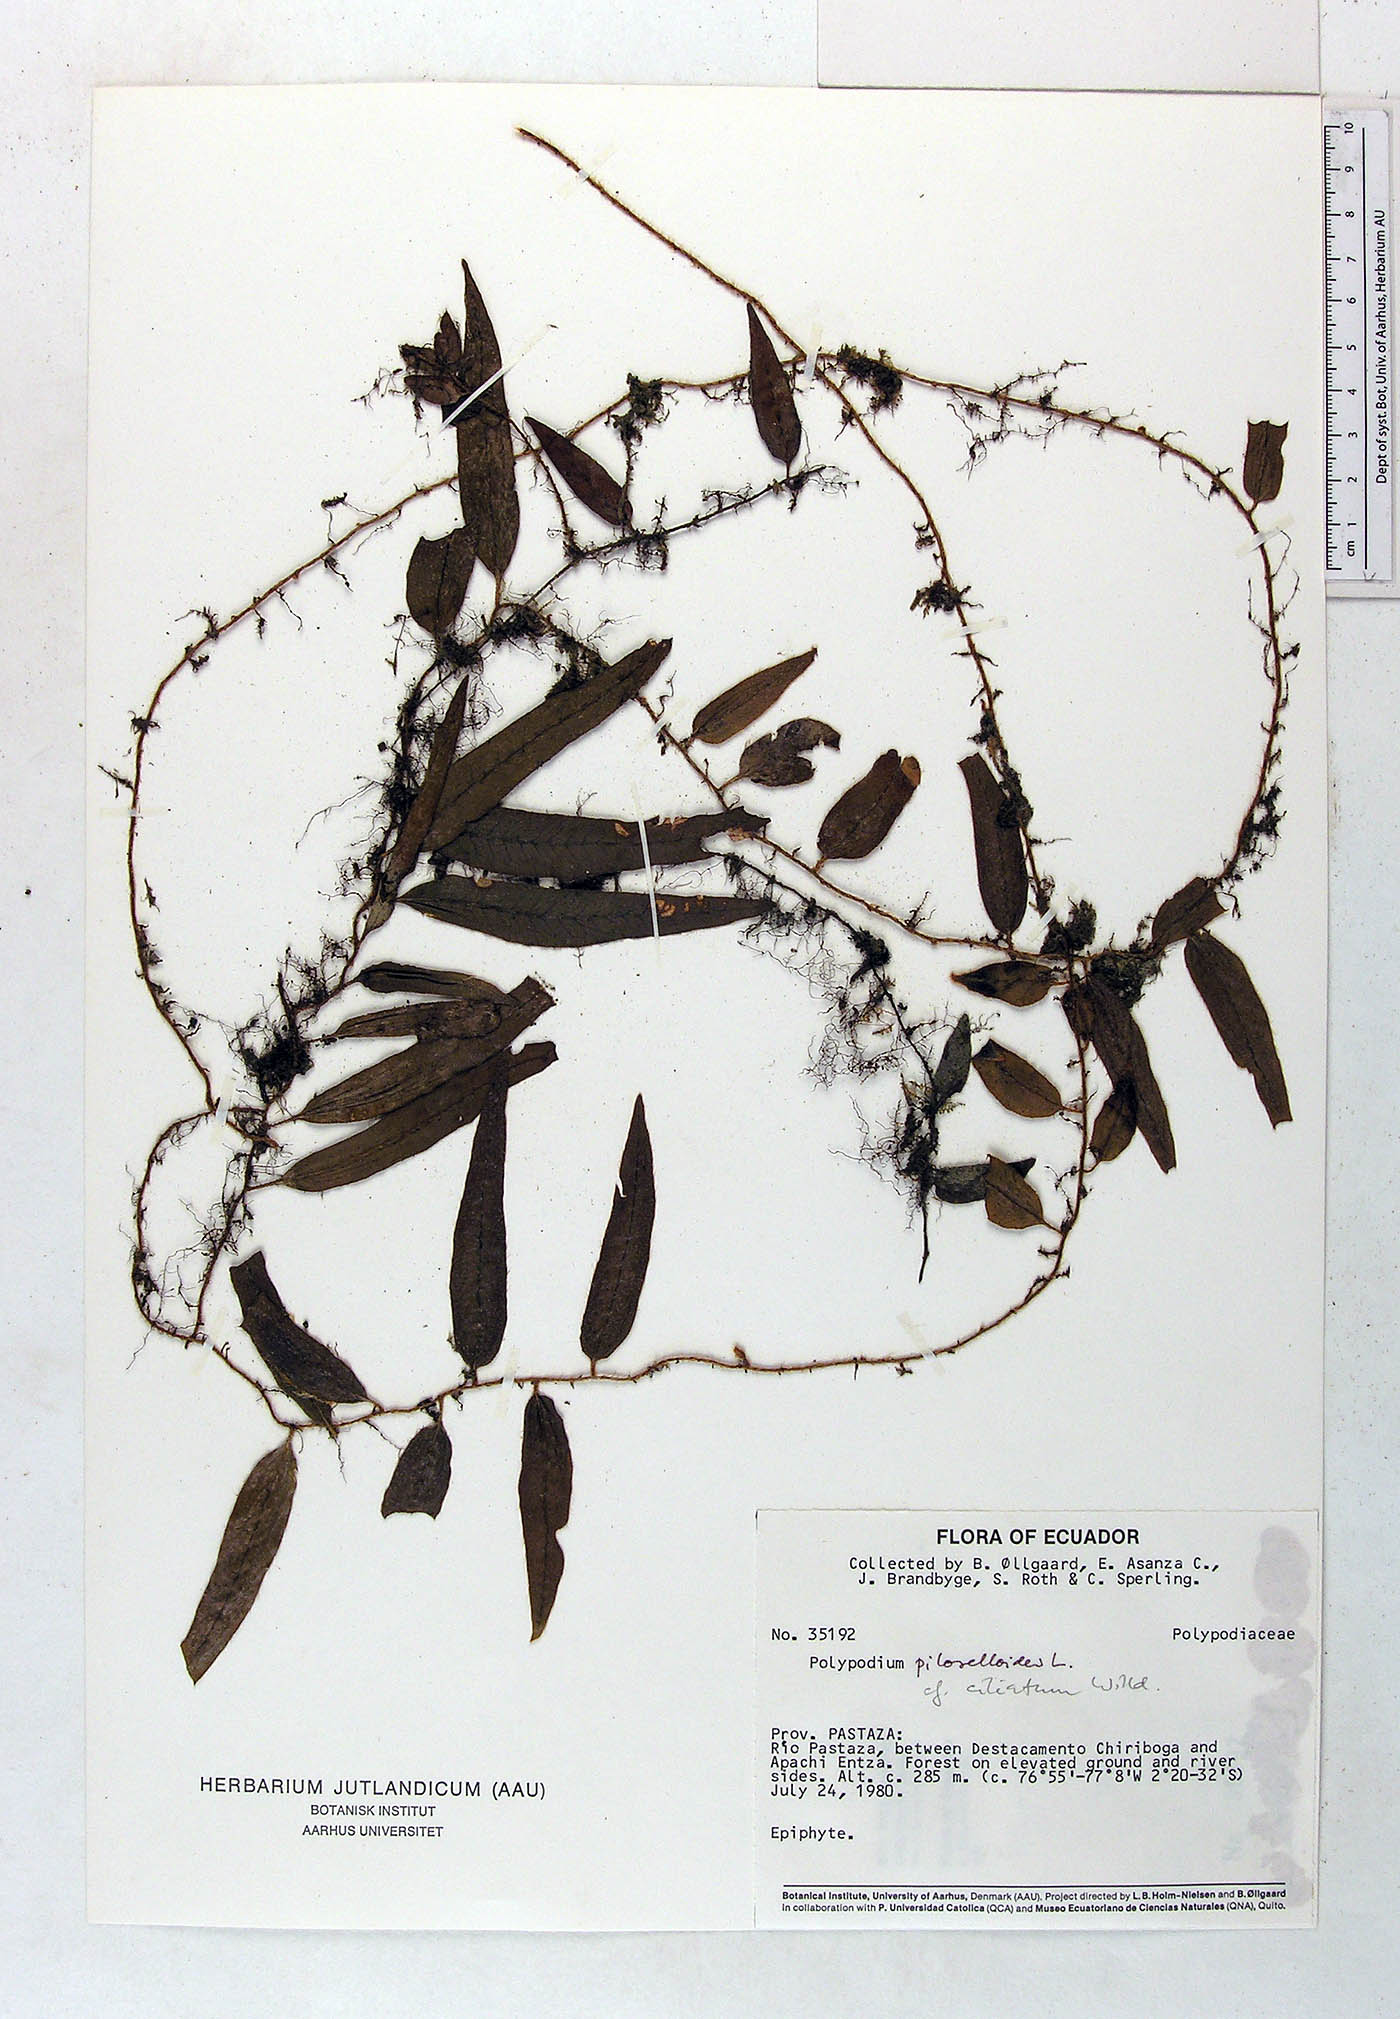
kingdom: Plantae
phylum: Tracheophyta
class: Polypodiopsida
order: Polypodiales
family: Polypodiaceae
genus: Microgramma
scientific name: Microgramma piloselloides
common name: Hairy snakefern
